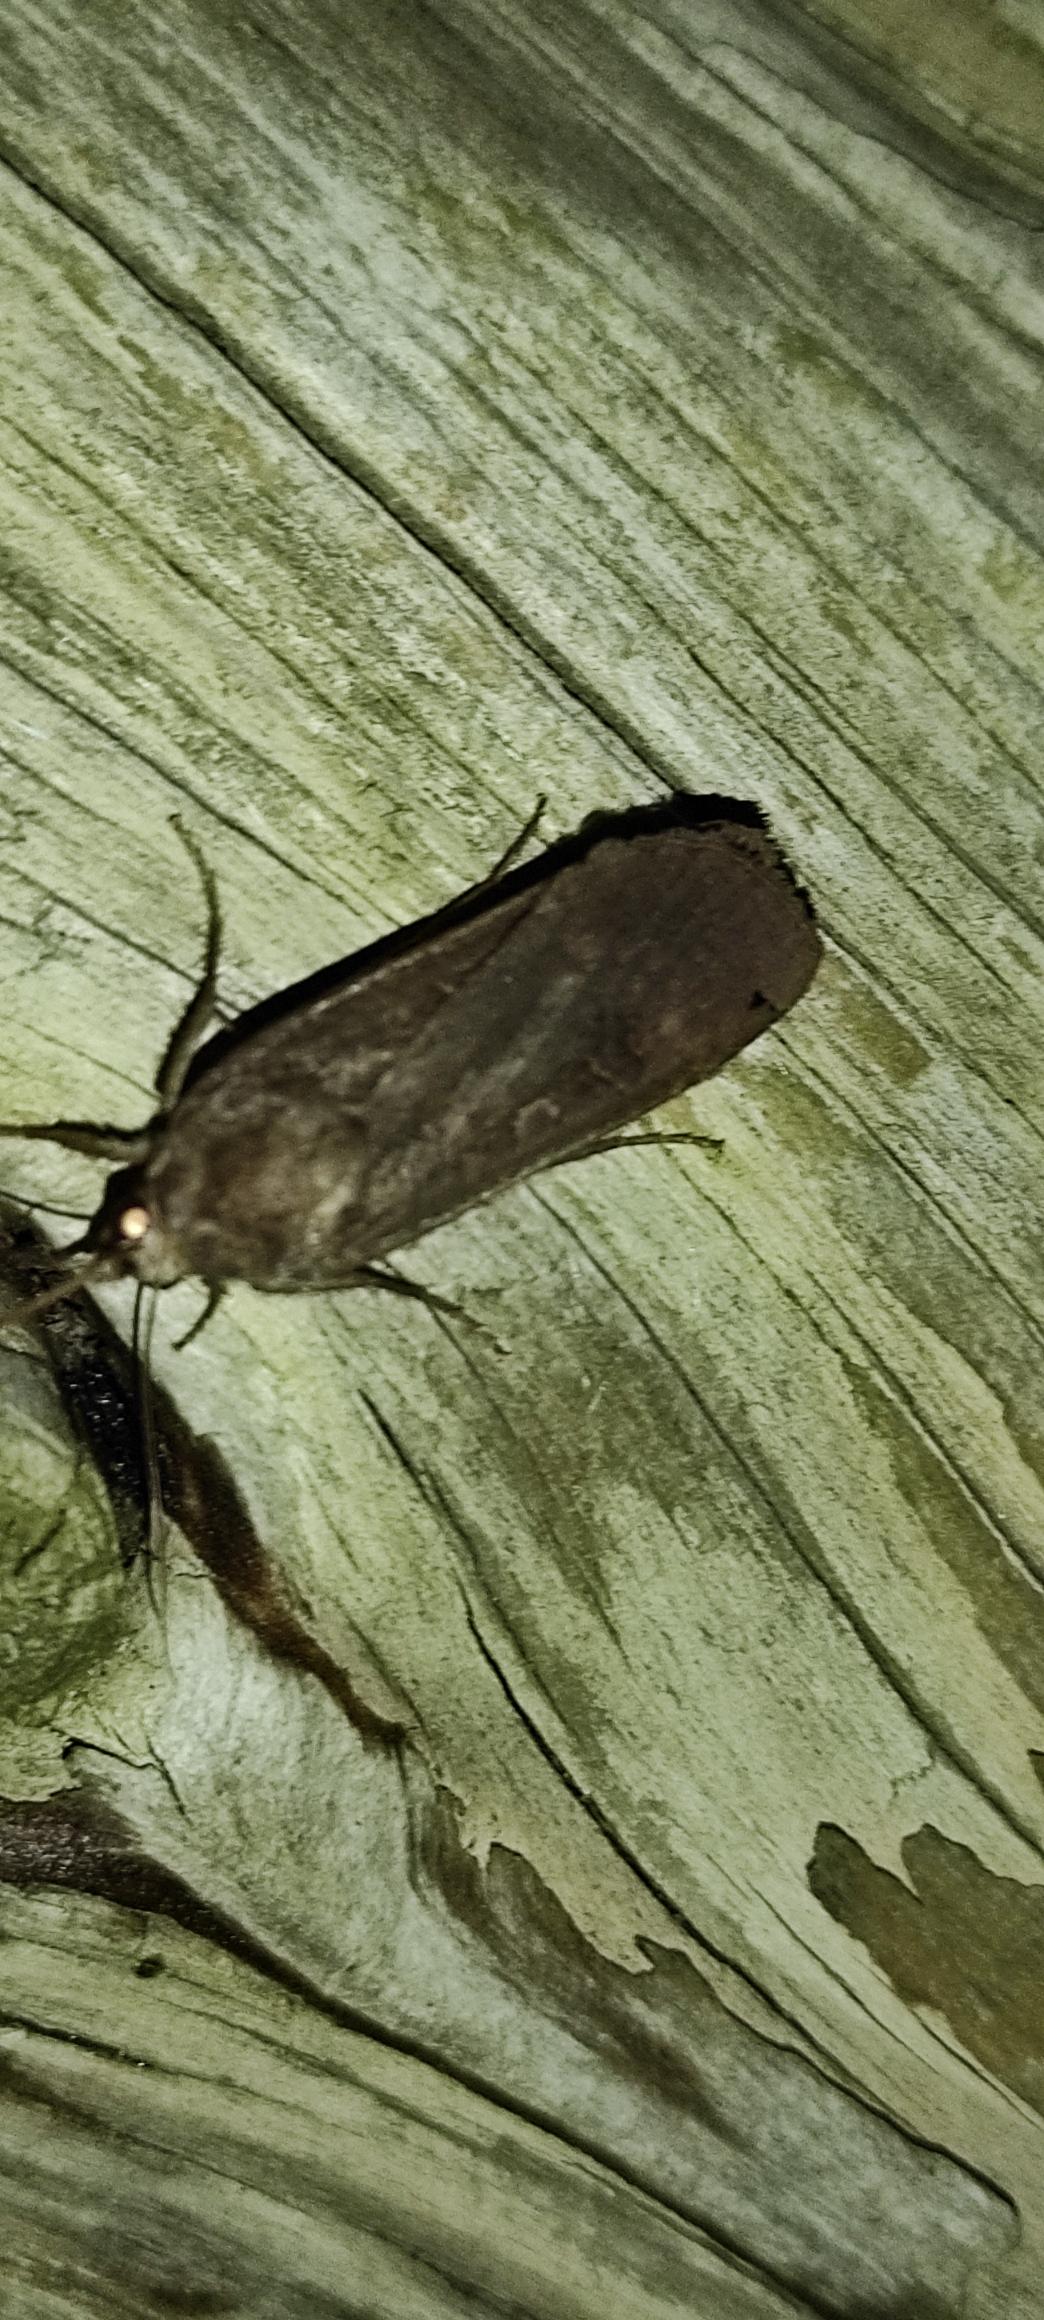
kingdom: Animalia
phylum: Arthropoda
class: Insecta
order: Lepidoptera
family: Noctuidae
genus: Noctua
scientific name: Noctua pronuba
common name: Stor smutugle
